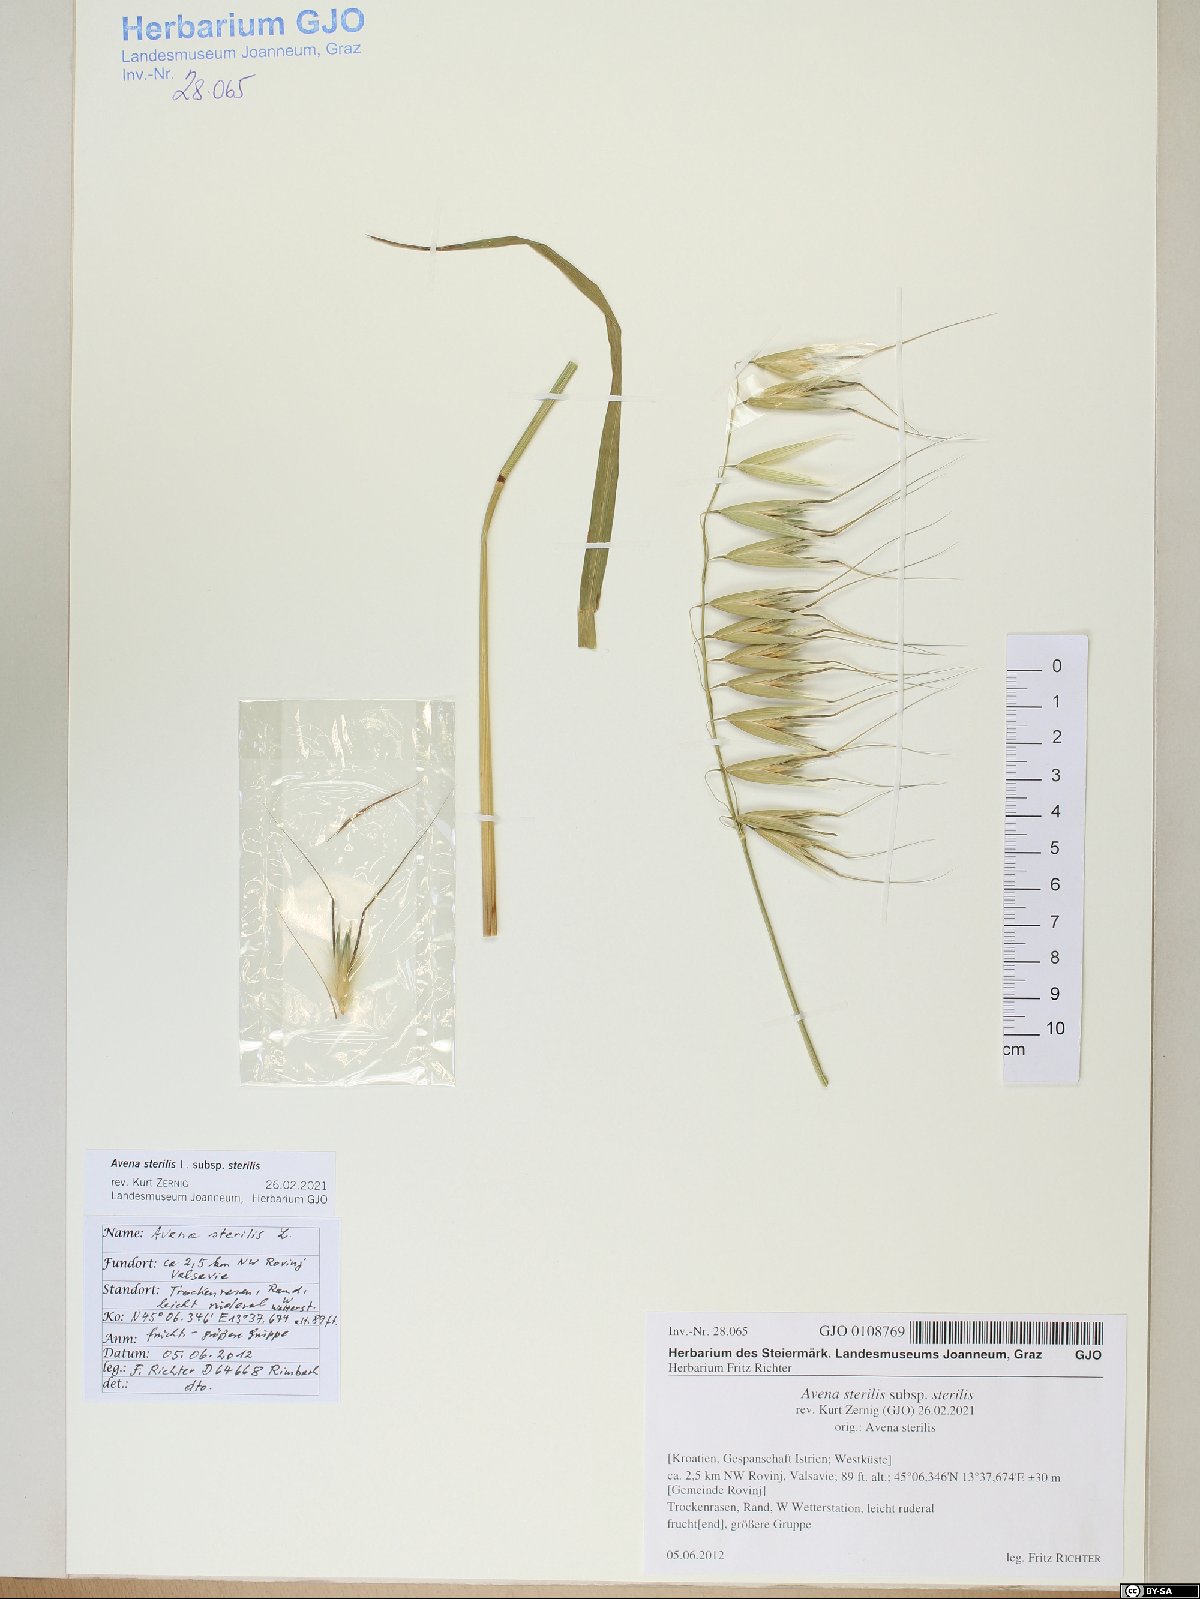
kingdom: Plantae
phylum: Tracheophyta
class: Liliopsida
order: Poales
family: Poaceae
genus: Avena
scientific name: Avena sterilis
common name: Animated oat
